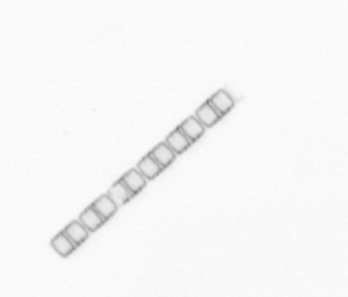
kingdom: Chromista
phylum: Ochrophyta
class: Bacillariophyceae
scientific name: Bacillariophyceae
